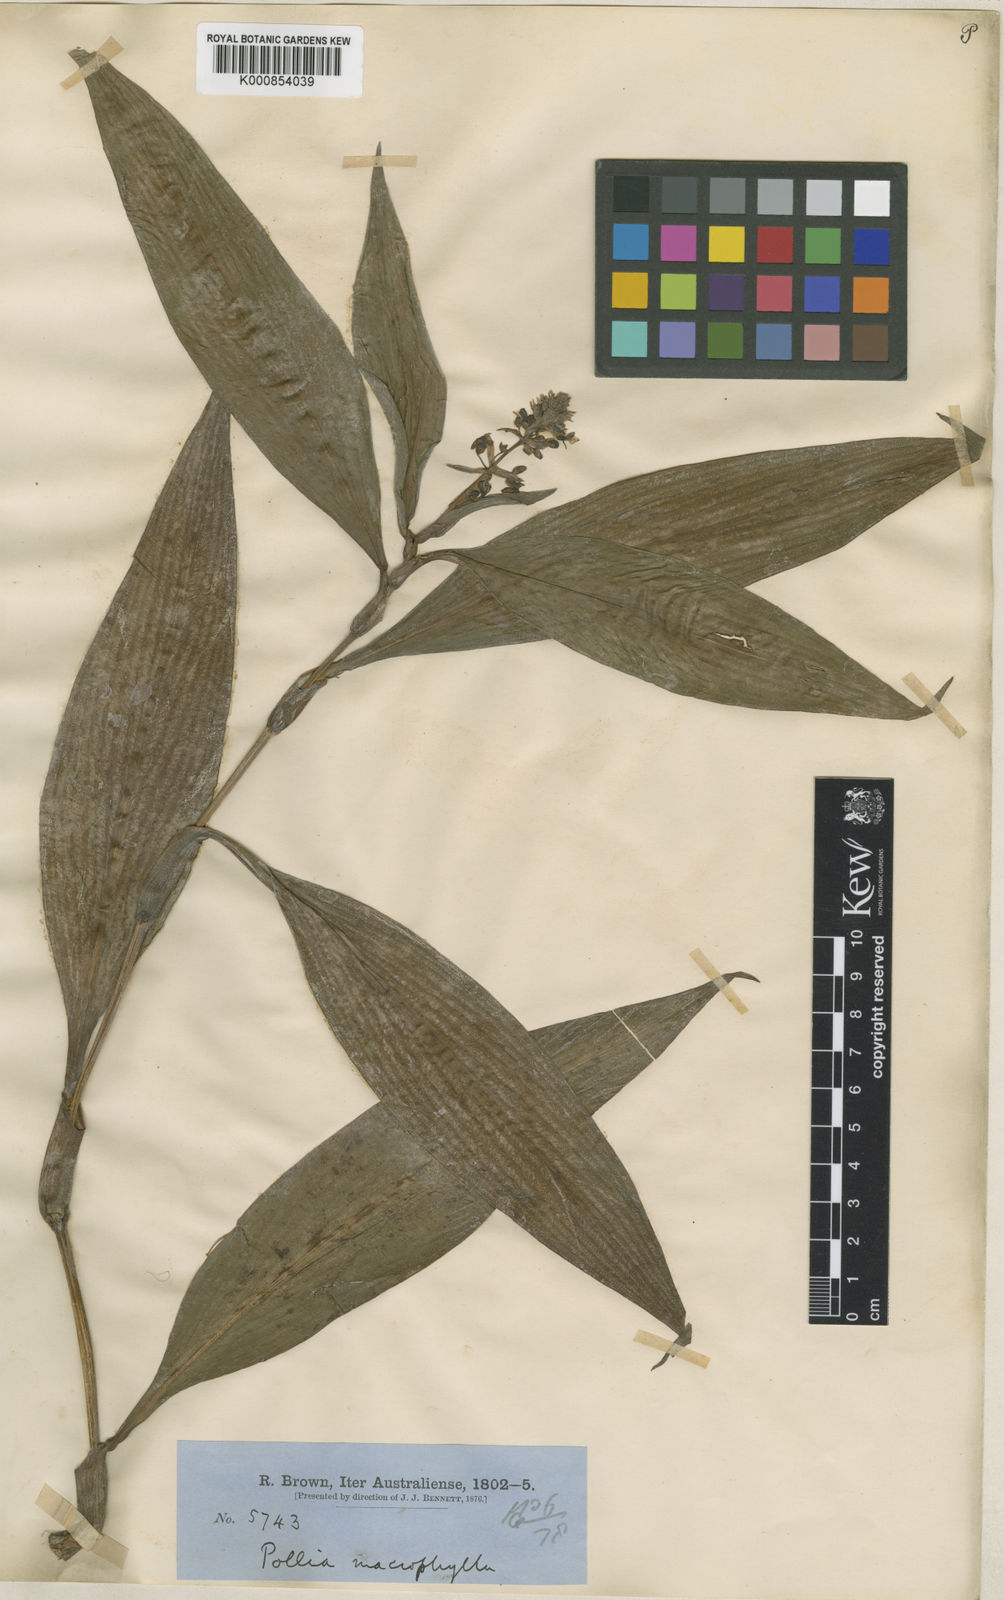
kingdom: Plantae
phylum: Tracheophyta
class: Liliopsida
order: Commelinales
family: Commelinaceae
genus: Pollia
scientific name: Pollia macrophylla
